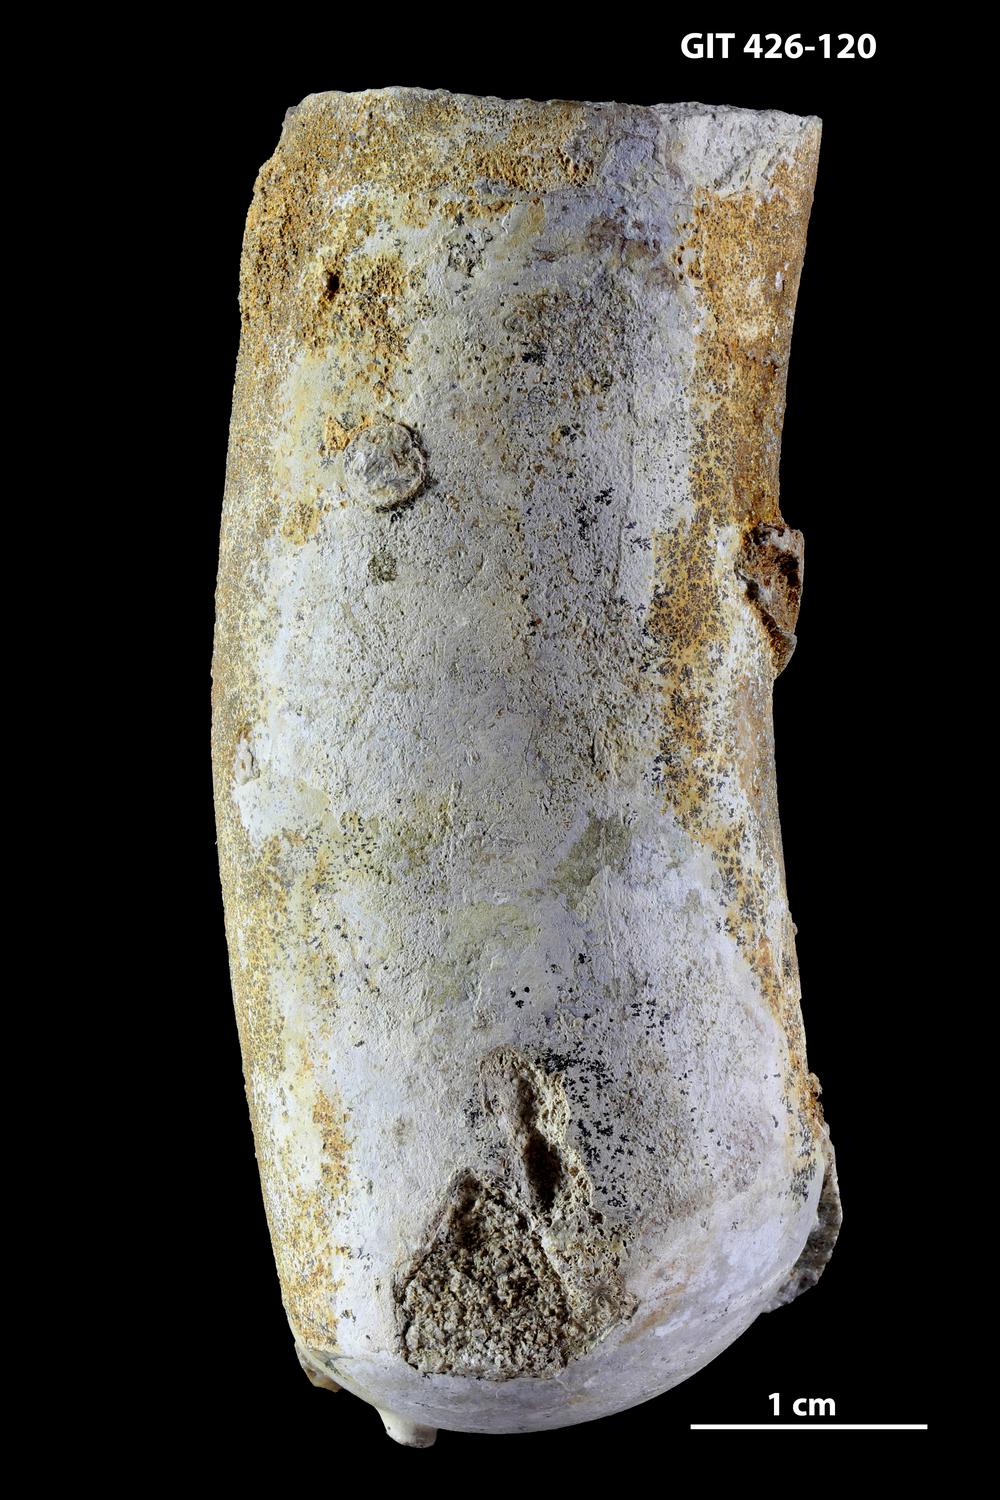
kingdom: Animalia
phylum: Mollusca
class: Cephalopoda
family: Estonioceratidae
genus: Tragoceras
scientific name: Tragoceras
